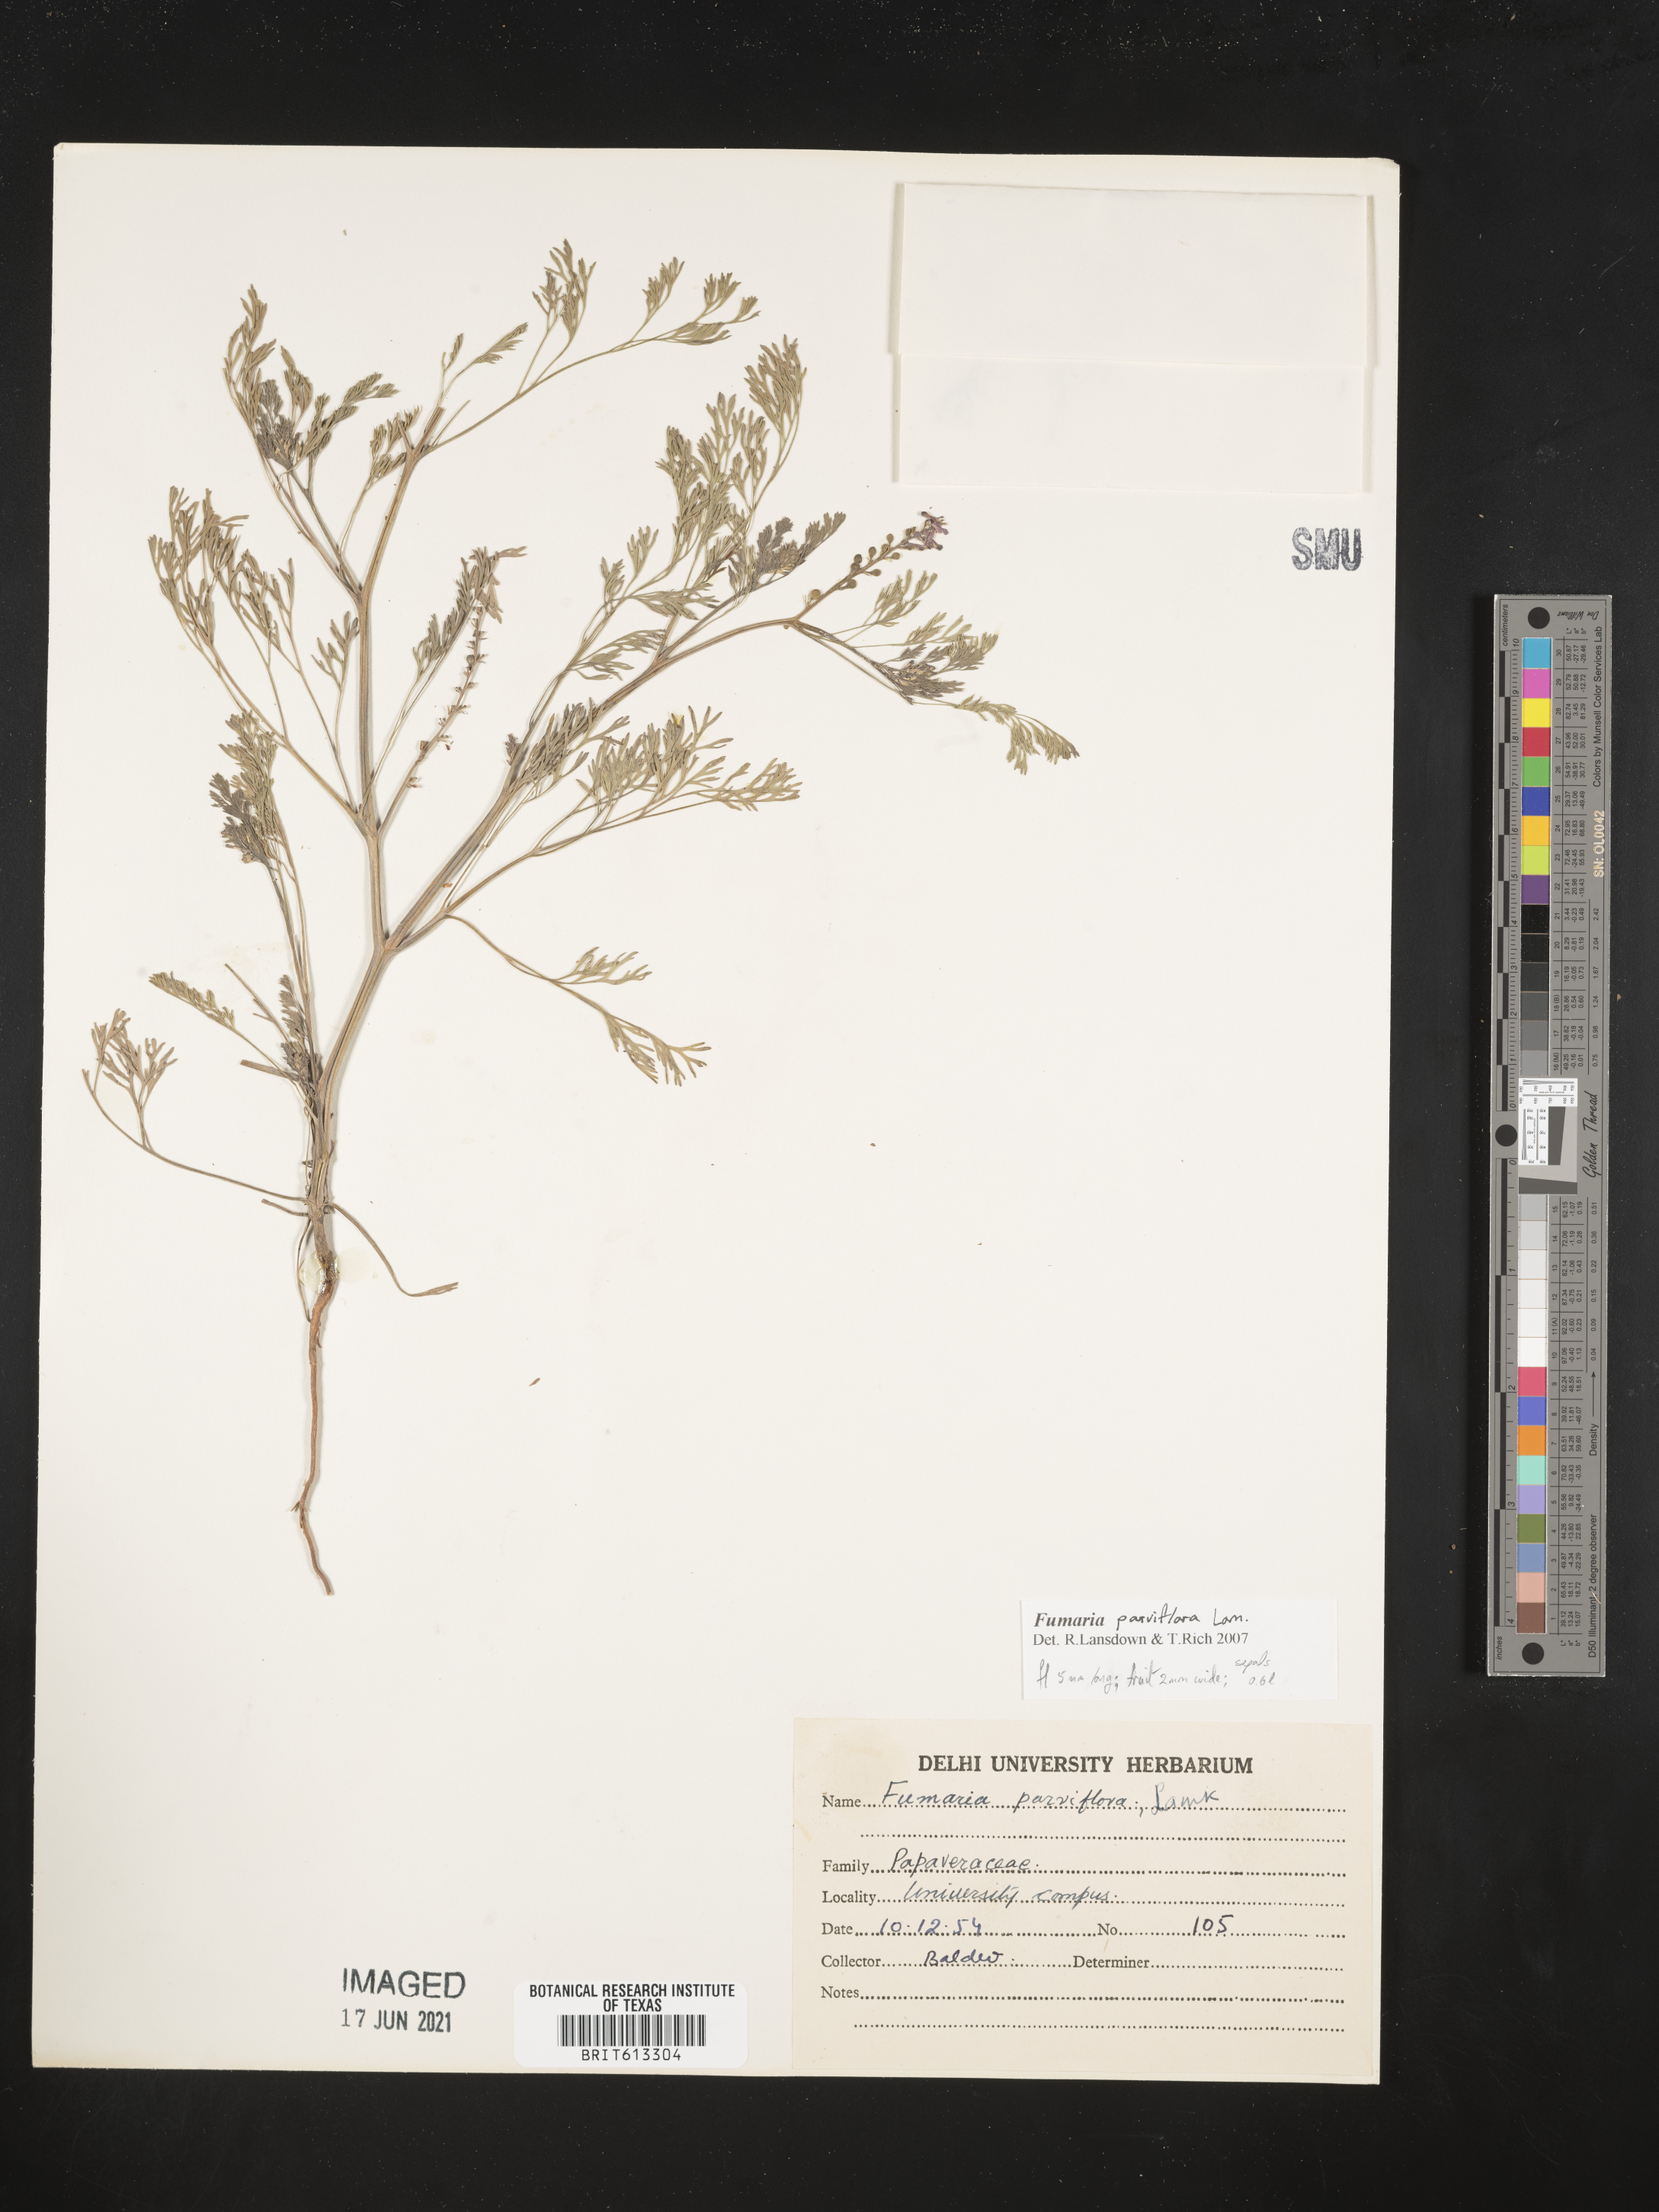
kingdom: Plantae
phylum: Tracheophyta
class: Magnoliopsida
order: Ranunculales
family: Papaveraceae
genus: Fumaria
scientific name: Fumaria parviflora
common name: Fine-leaved fumitory
